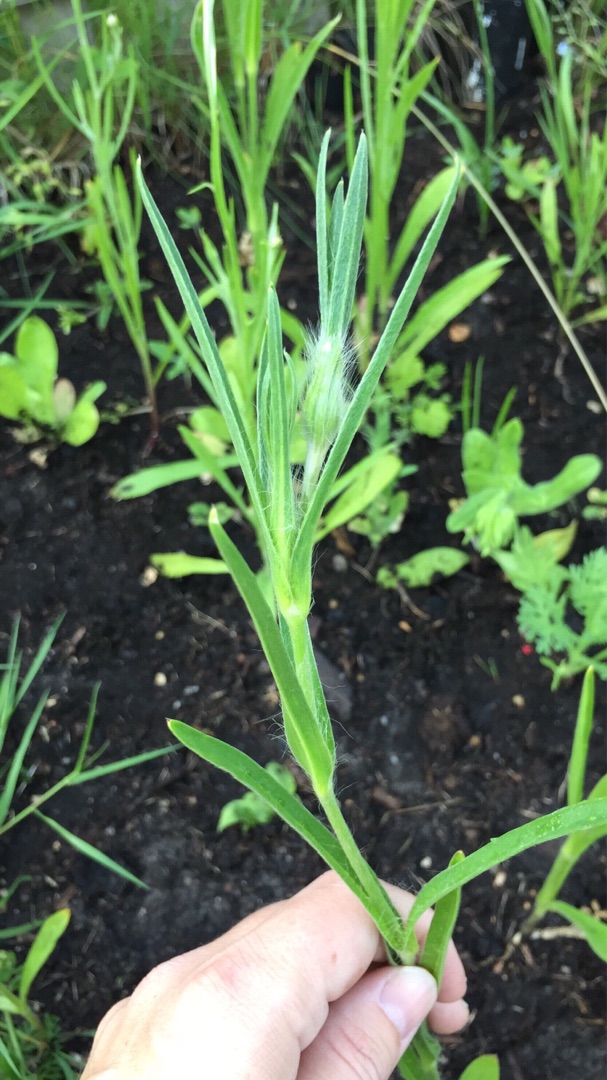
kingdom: Plantae
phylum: Tracheophyta
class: Magnoliopsida
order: Caryophyllales
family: Caryophyllaceae
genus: Agrostemma
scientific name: Agrostemma githago
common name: Klinte
